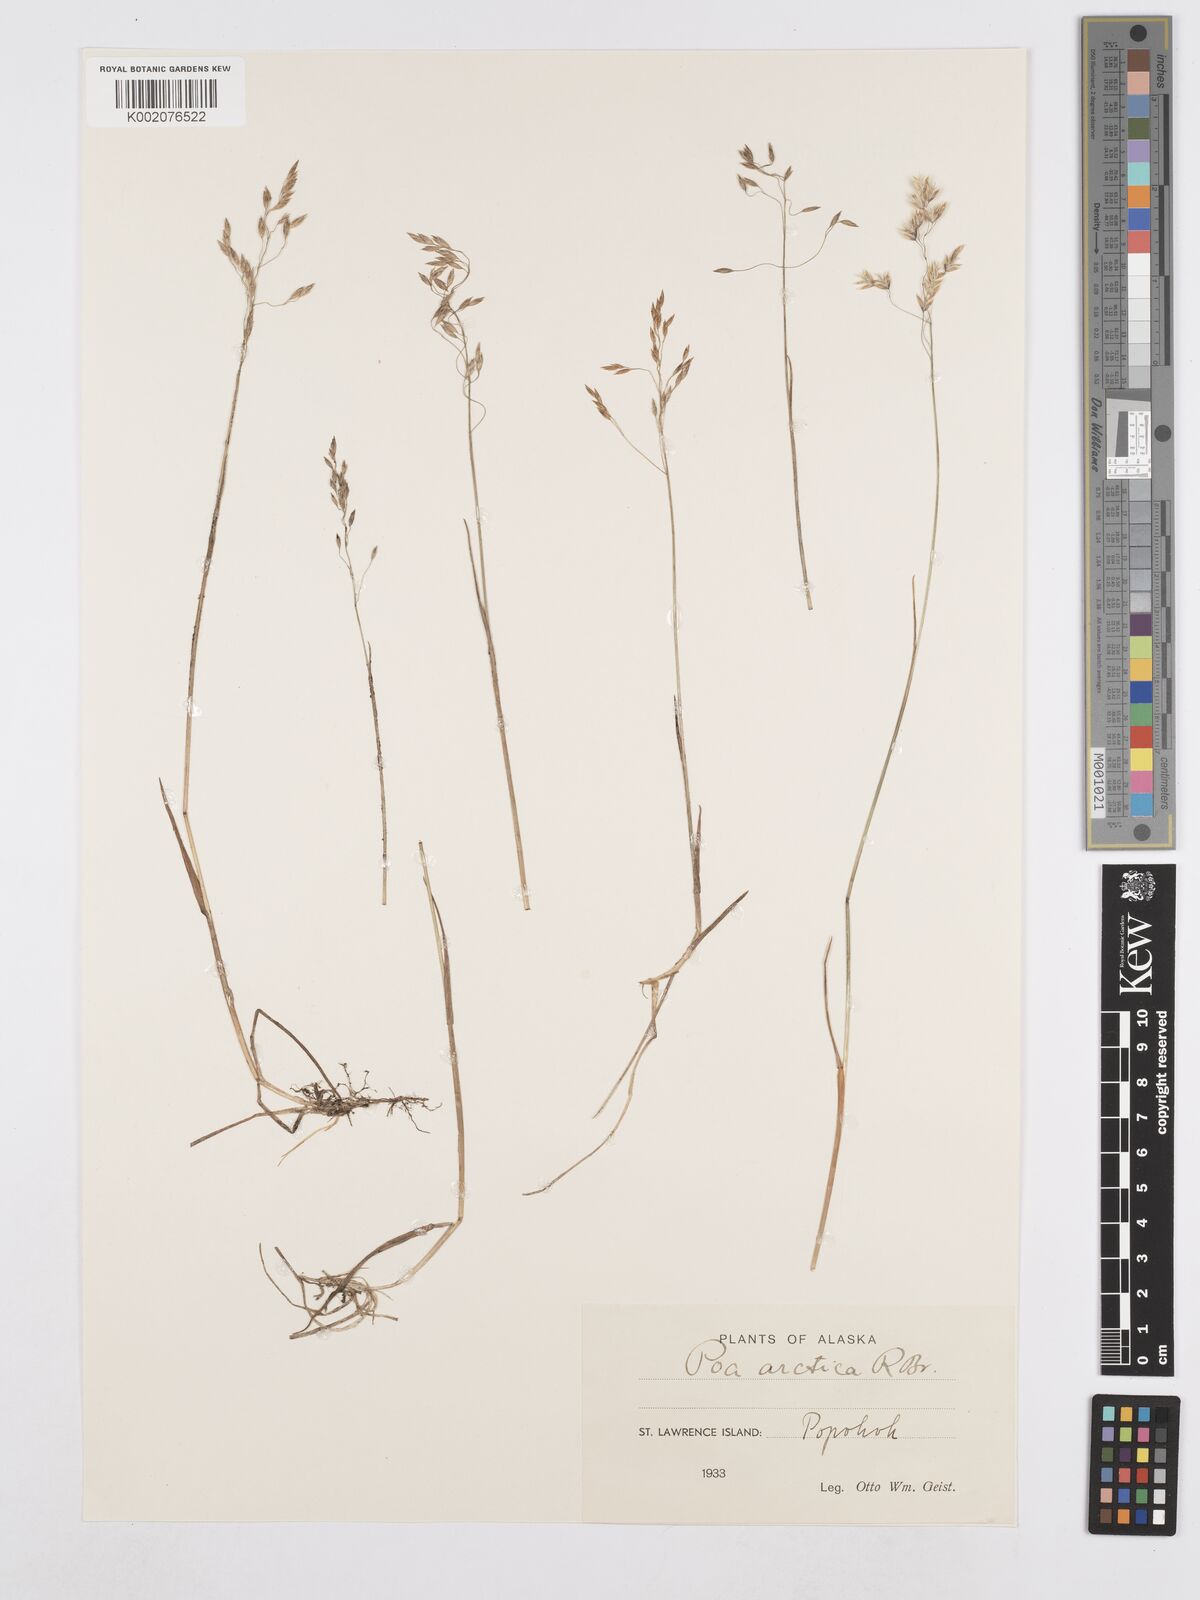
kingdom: Plantae
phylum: Tracheophyta
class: Liliopsida
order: Poales
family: Poaceae
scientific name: Poaceae
